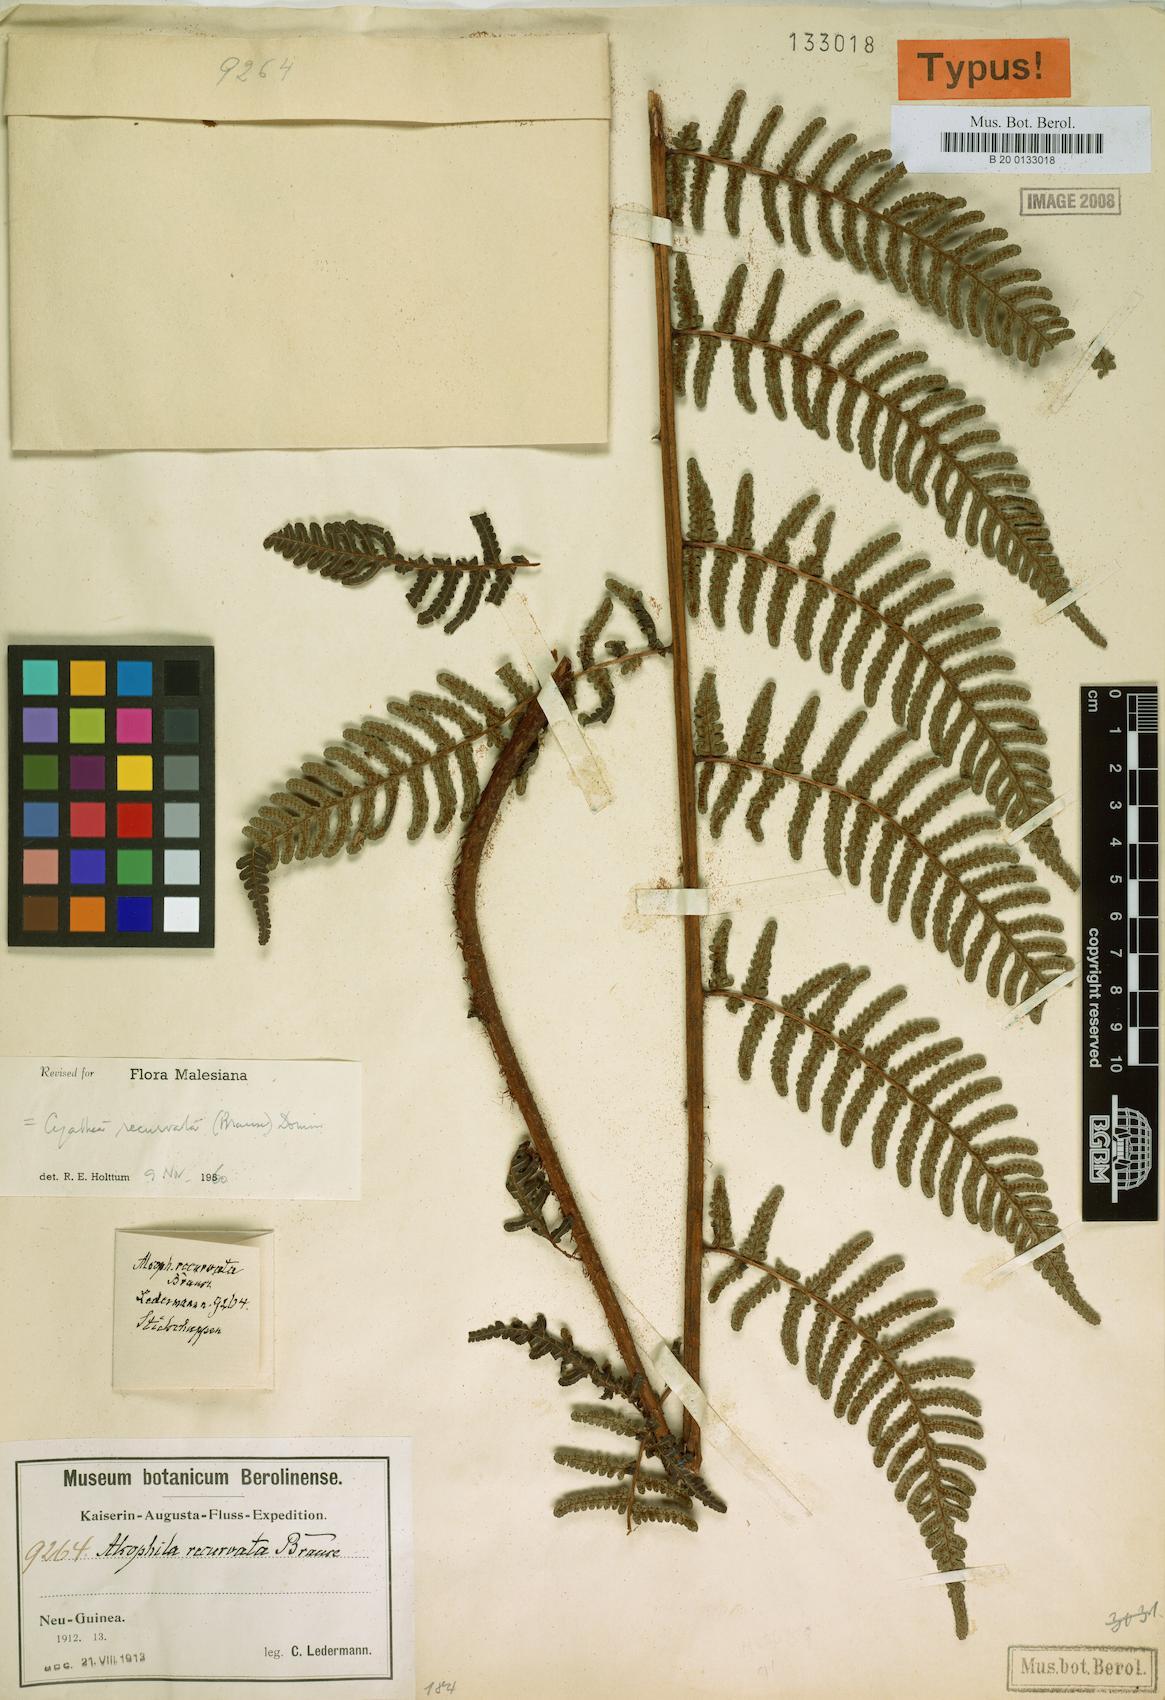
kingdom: Plantae
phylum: Tracheophyta
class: Polypodiopsida
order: Cyatheales
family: Cyatheaceae
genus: Alsophila
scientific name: Alsophila recurvata
